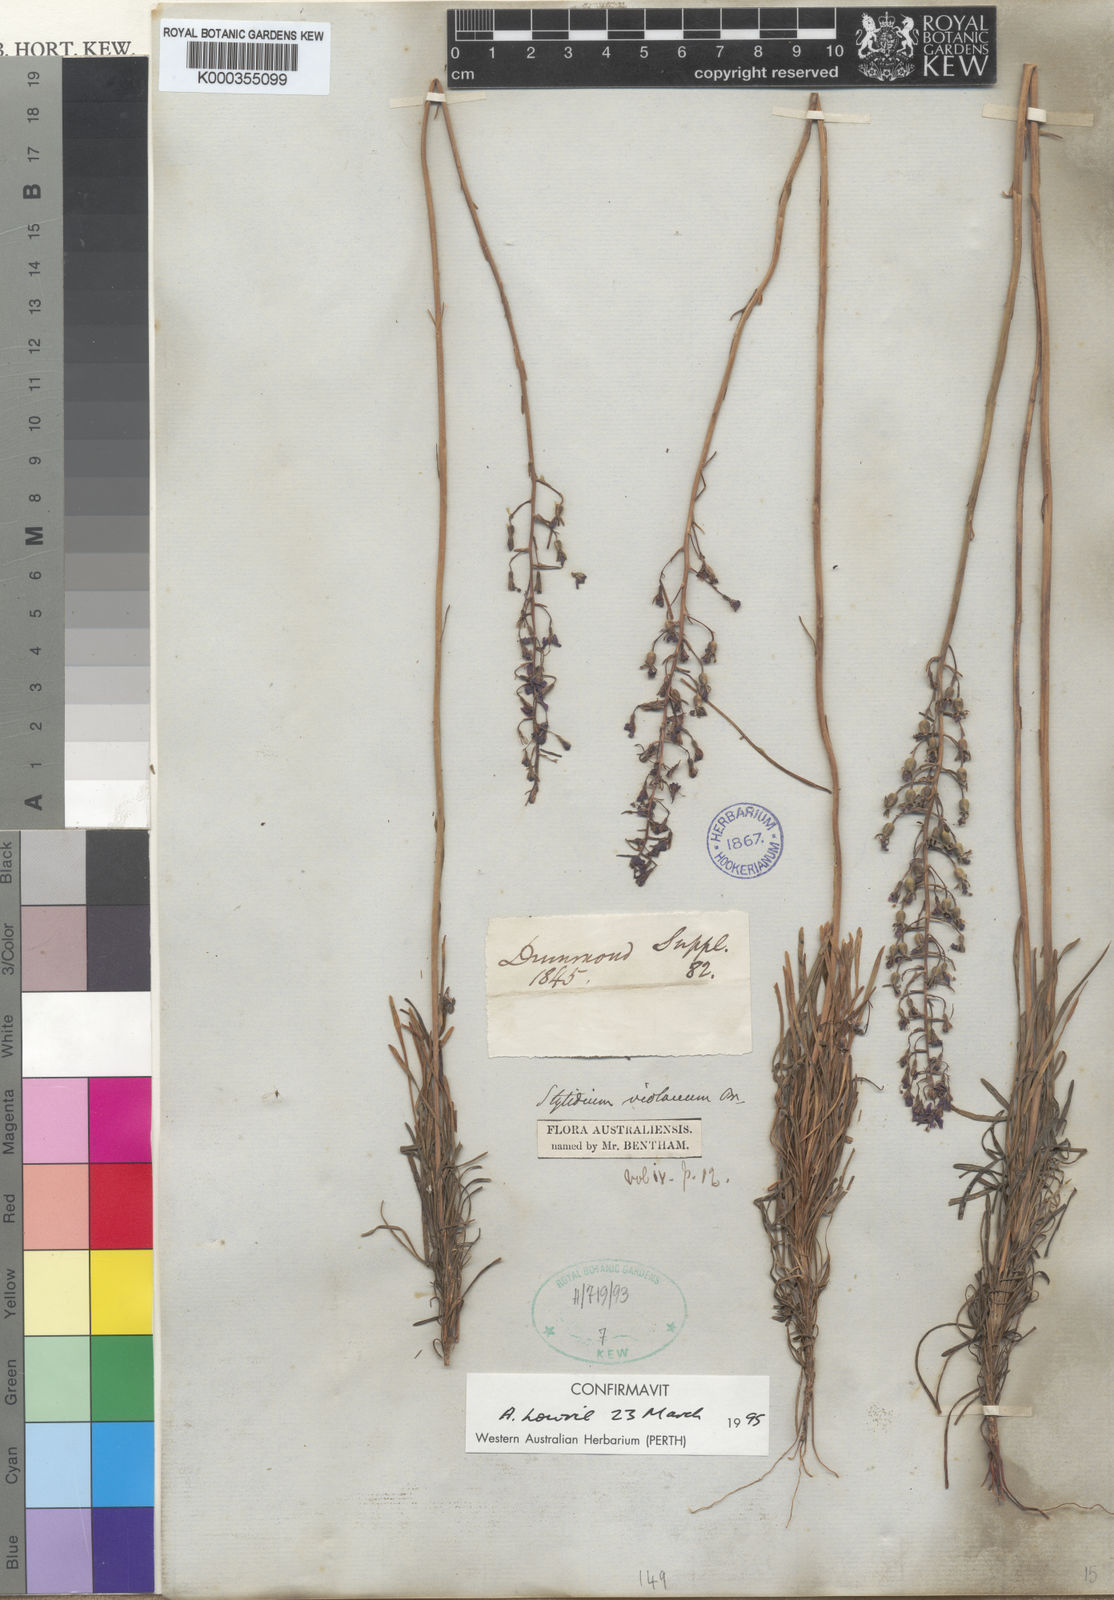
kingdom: Plantae
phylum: Tracheophyta
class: Magnoliopsida
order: Asterales
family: Stylidiaceae
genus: Stylidium
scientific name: Stylidium violaceum
